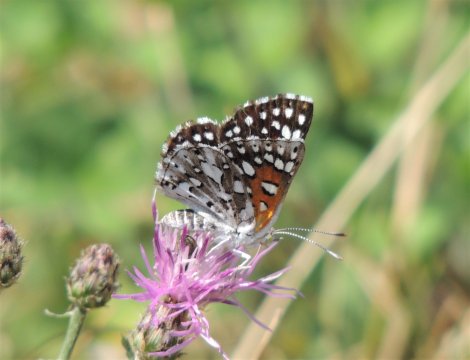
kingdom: Animalia
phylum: Arthropoda
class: Insecta
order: Lepidoptera
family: Riodinidae
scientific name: Riodinidae
